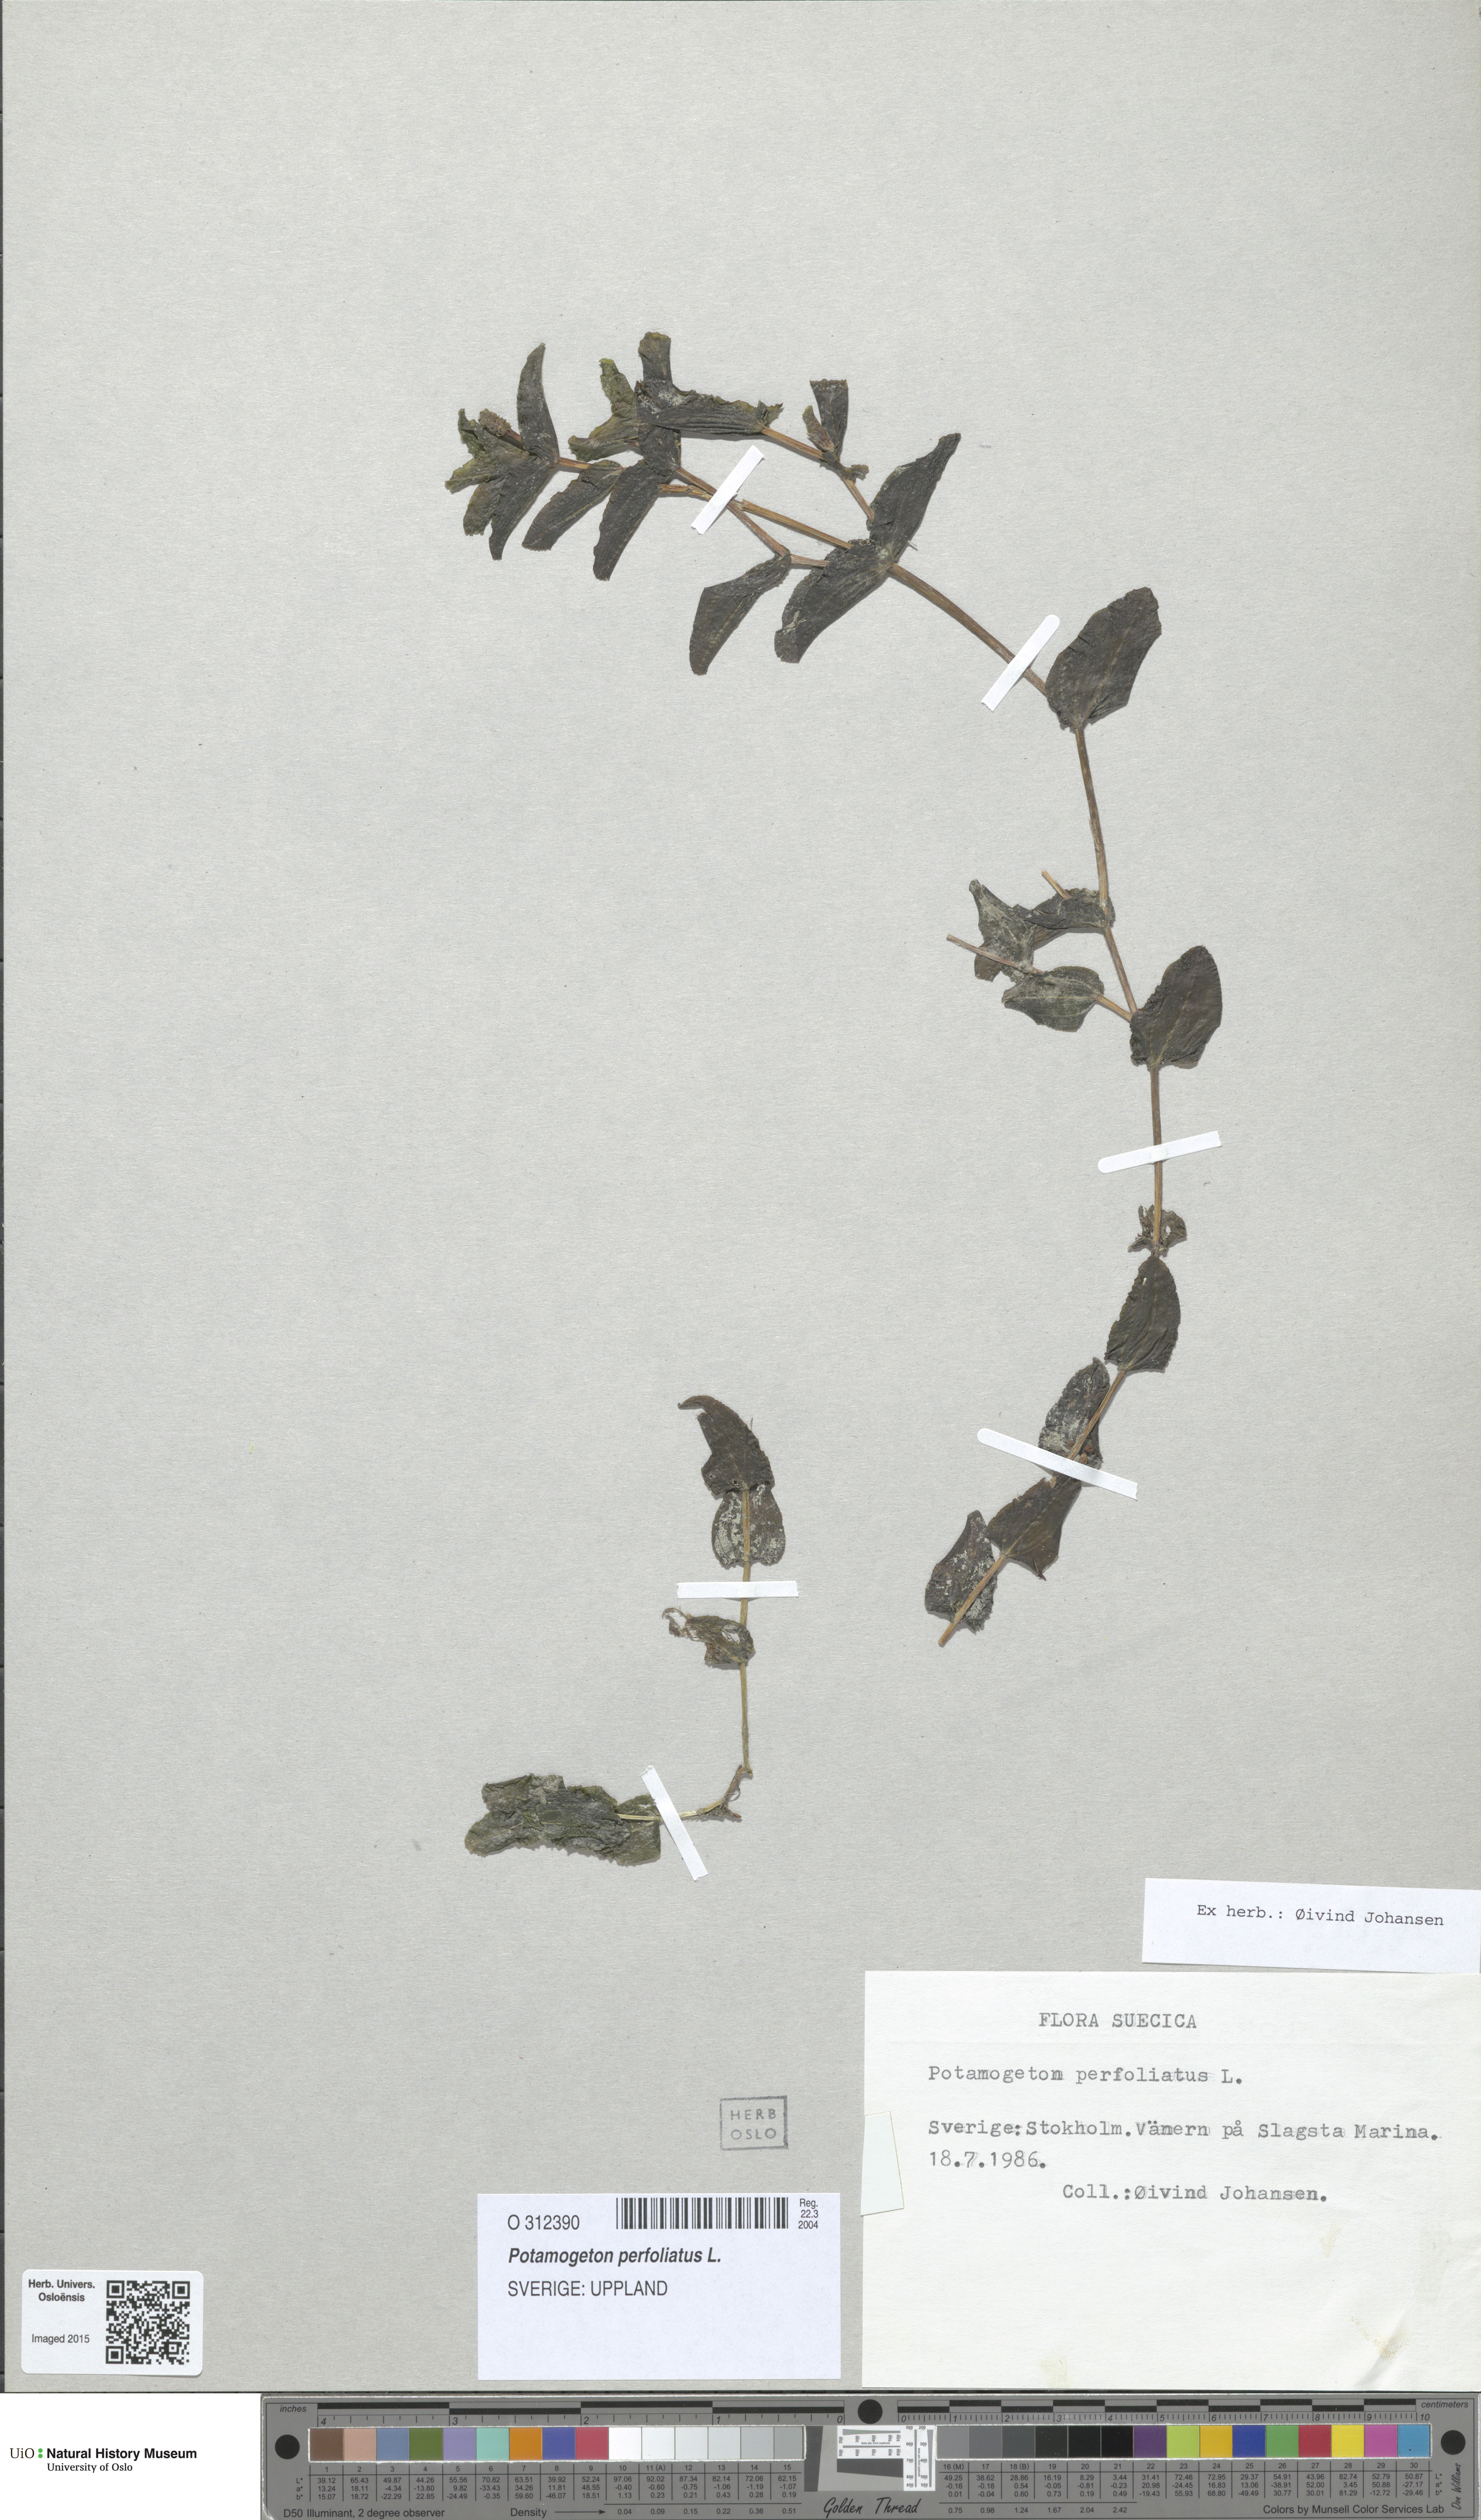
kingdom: Plantae
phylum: Tracheophyta
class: Liliopsida
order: Alismatales
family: Potamogetonaceae
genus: Potamogeton
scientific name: Potamogeton perfoliatus
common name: Perfoliate pondweed
